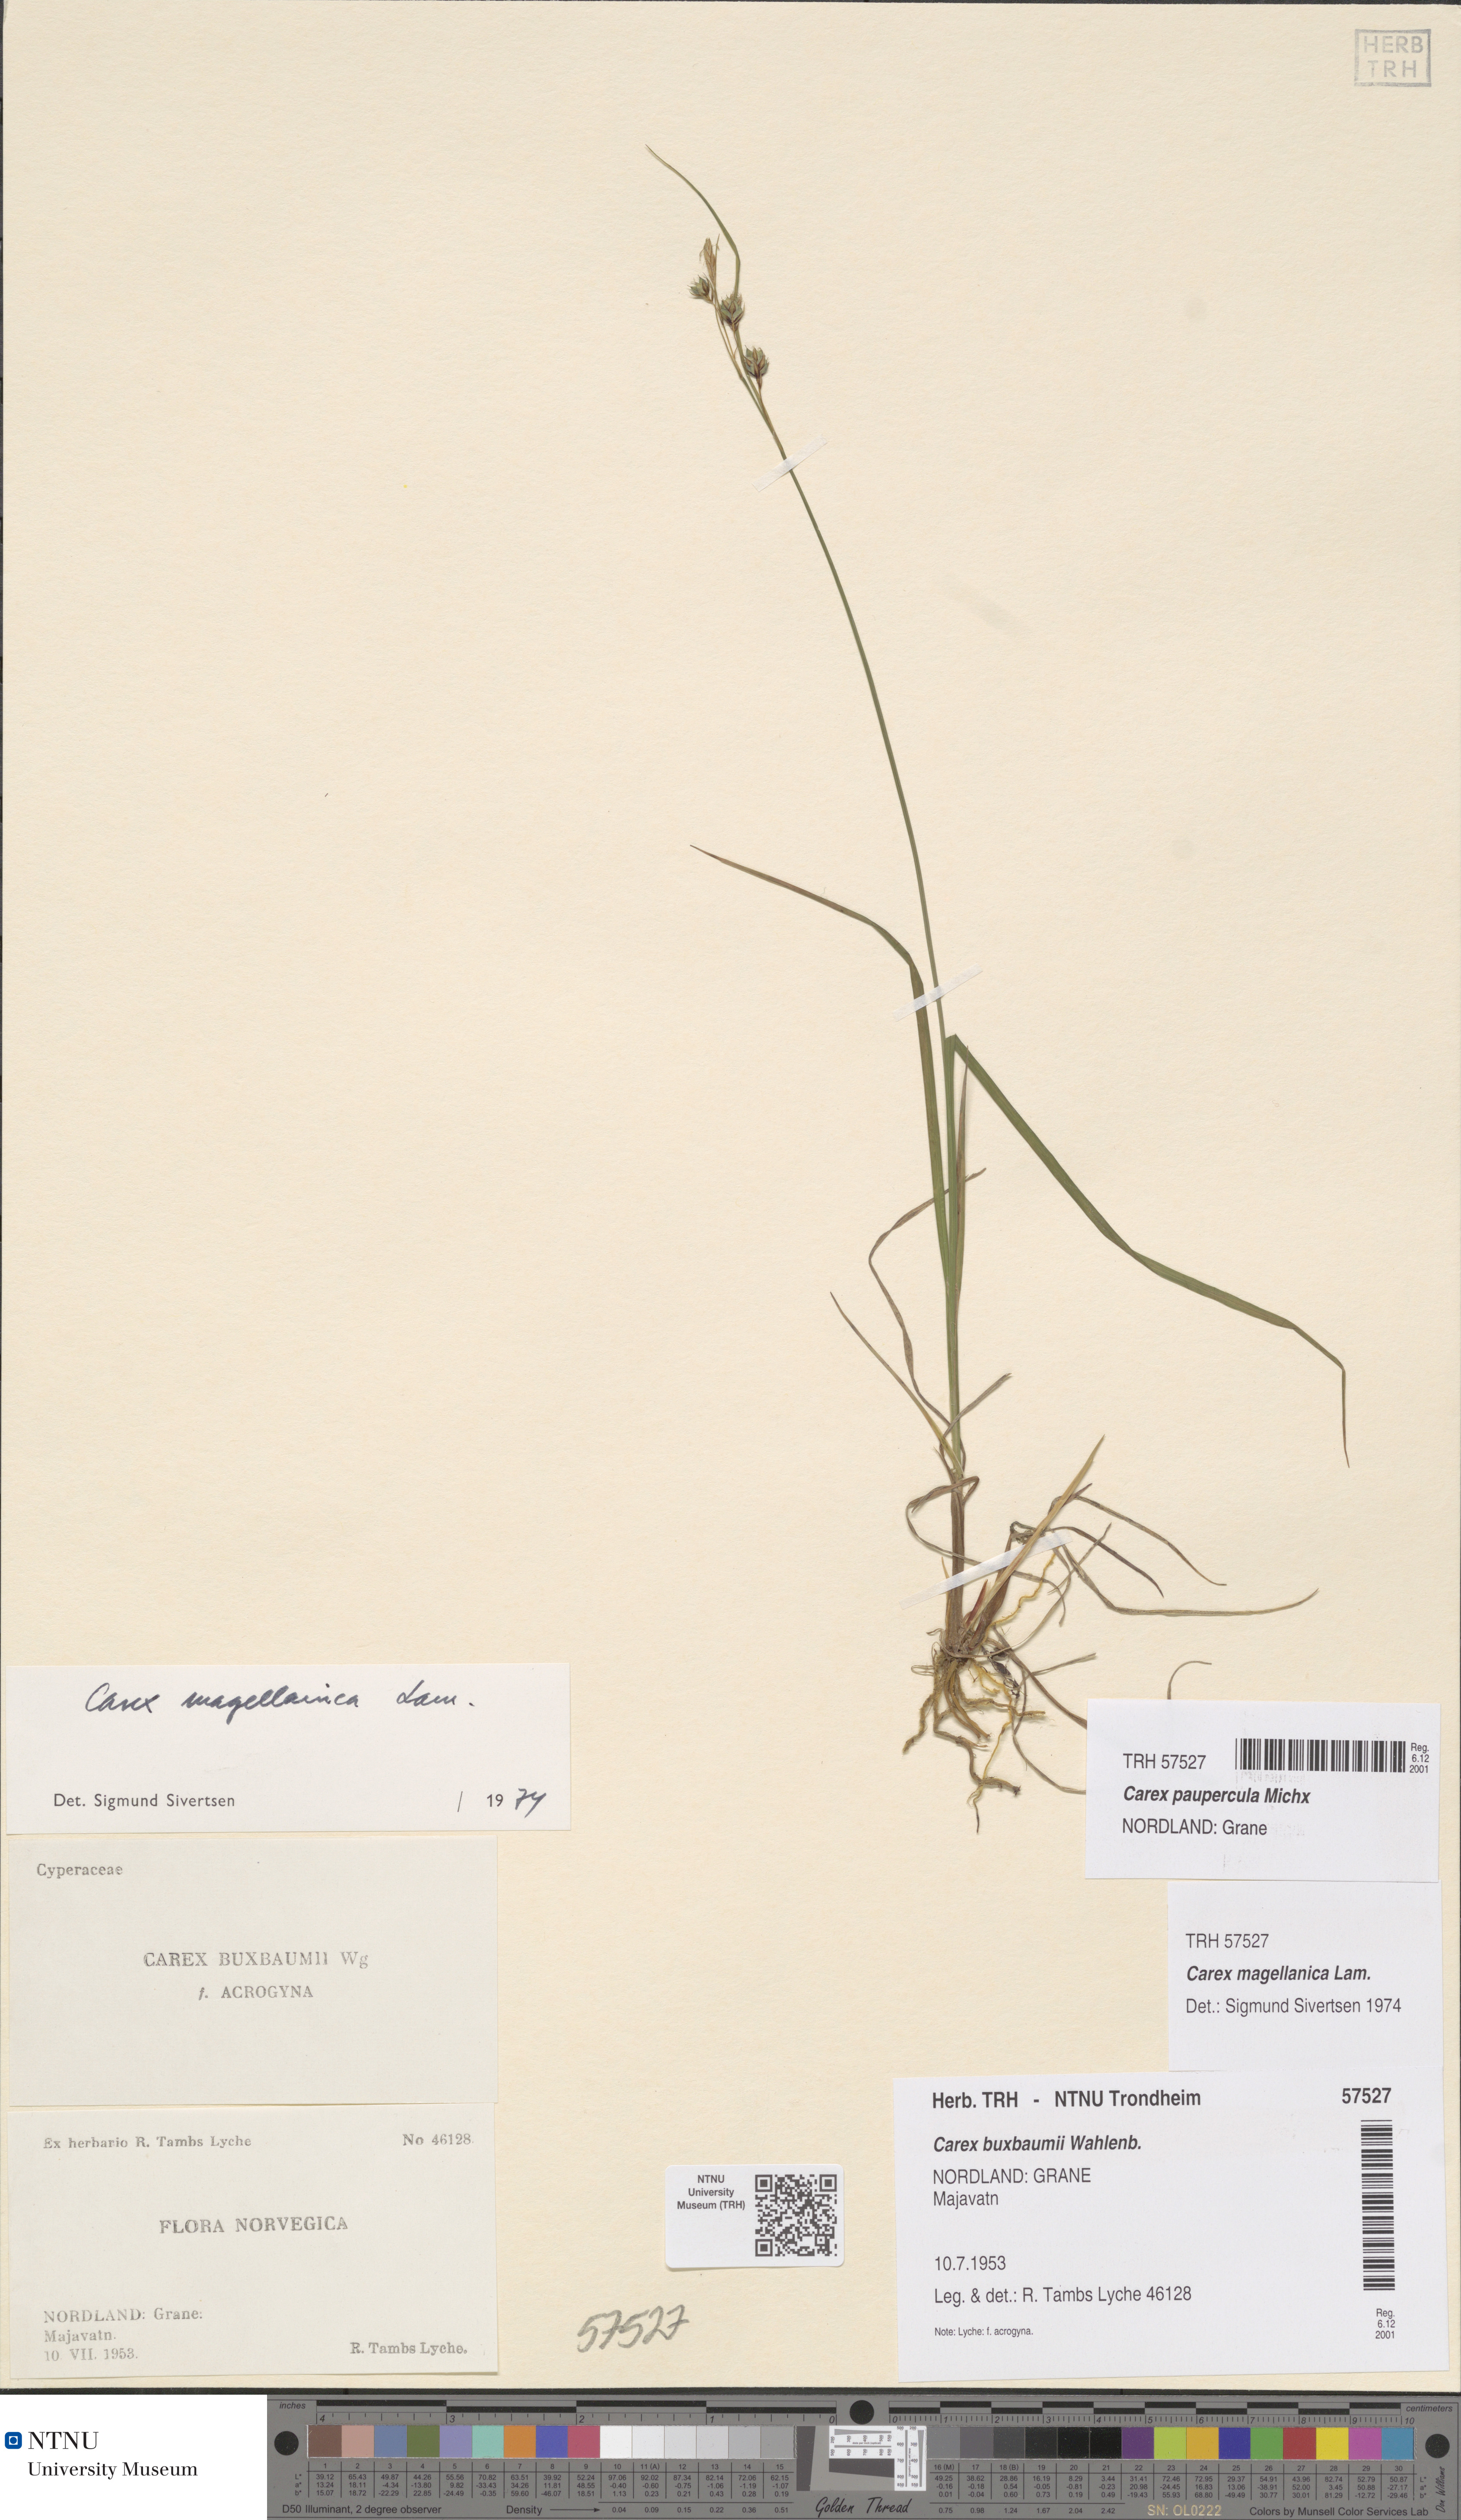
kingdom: Plantae
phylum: Tracheophyta
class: Liliopsida
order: Poales
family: Cyperaceae
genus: Carex
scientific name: Carex magellanica
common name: Bog sedge
